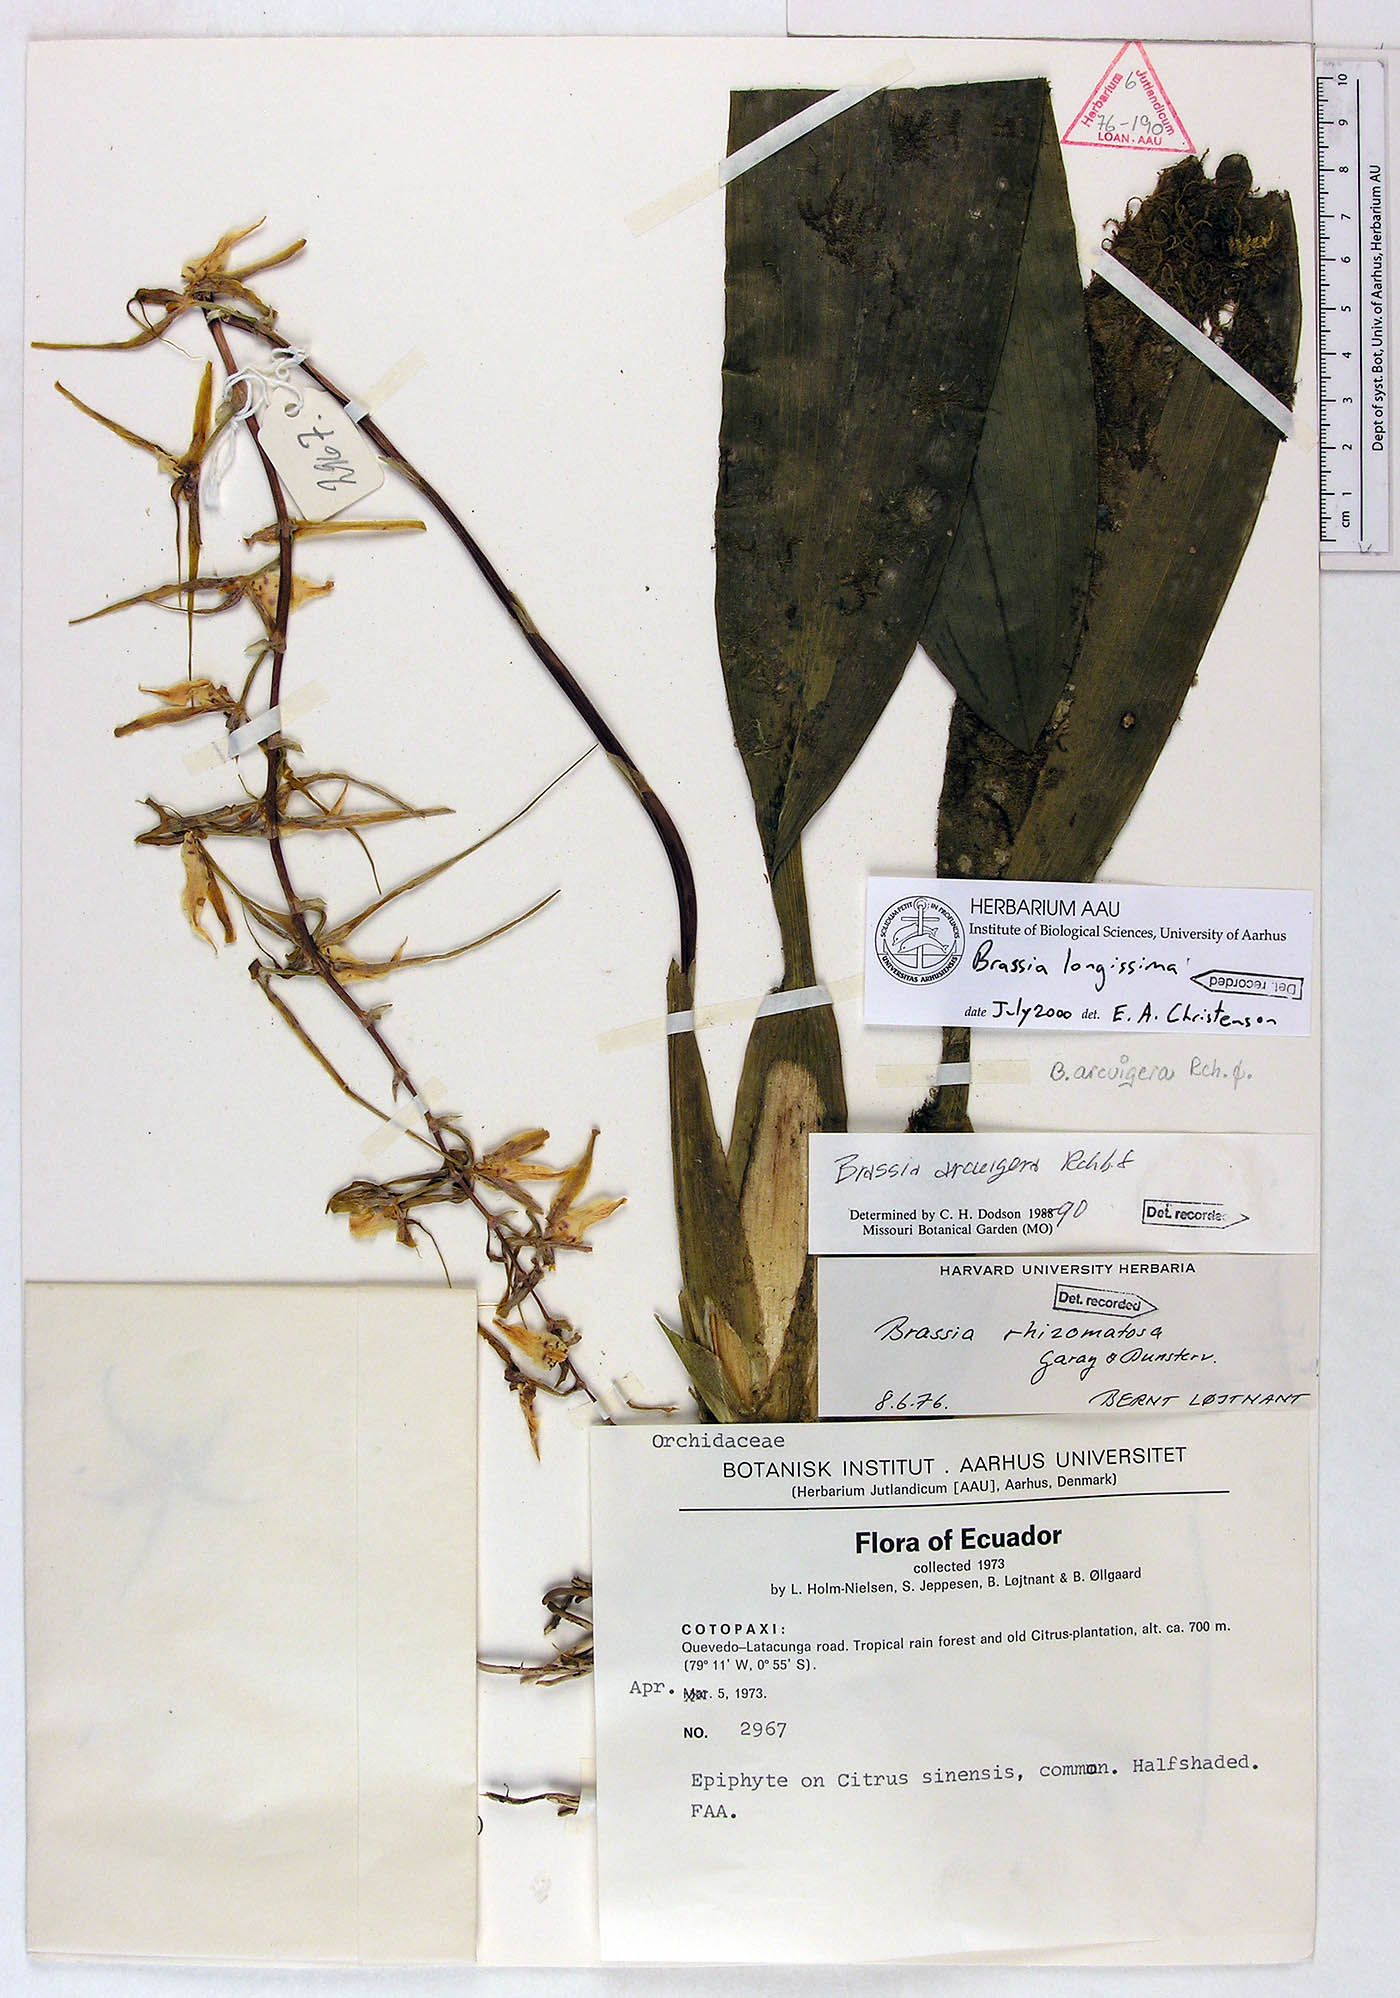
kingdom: Plantae
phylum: Tracheophyta
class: Liliopsida
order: Asparagales
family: Orchidaceae
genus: Brassia
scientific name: Brassia arcuigera
